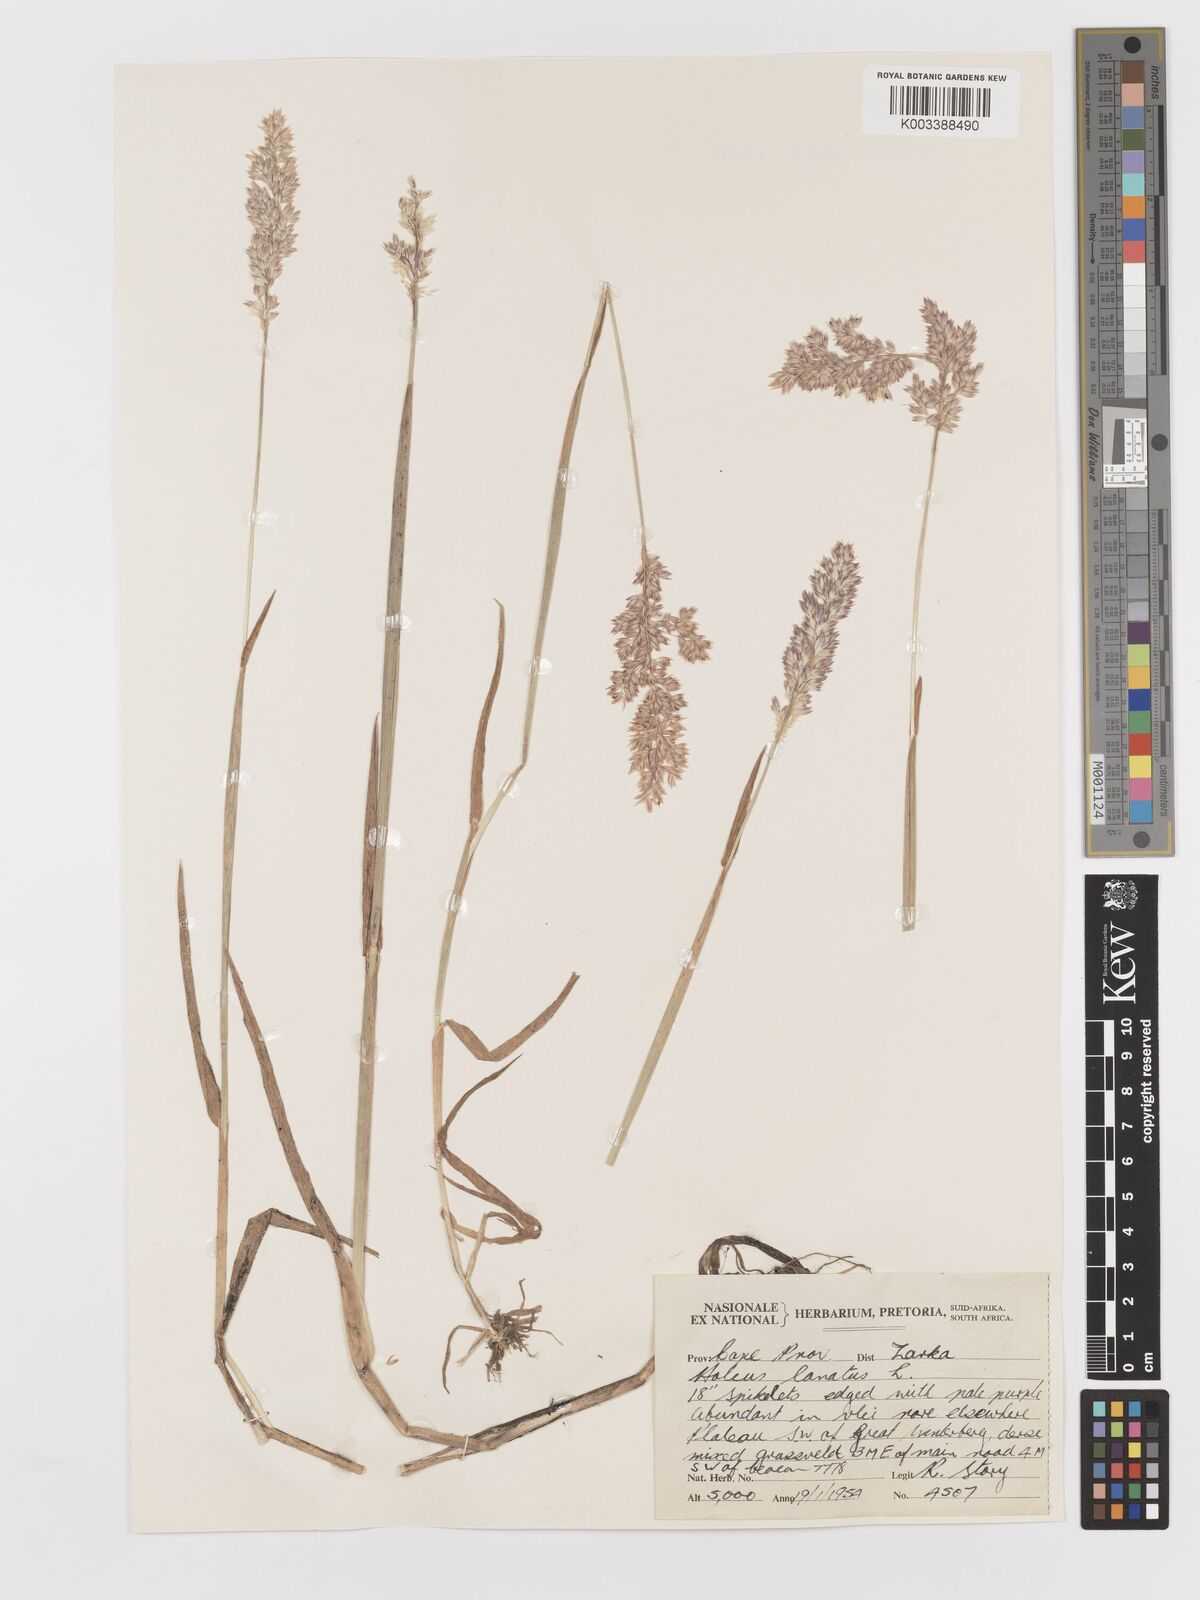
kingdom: Plantae
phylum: Tracheophyta
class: Liliopsida
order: Poales
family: Poaceae
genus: Holcus
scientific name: Holcus lanatus
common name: Yorkshire-fog
